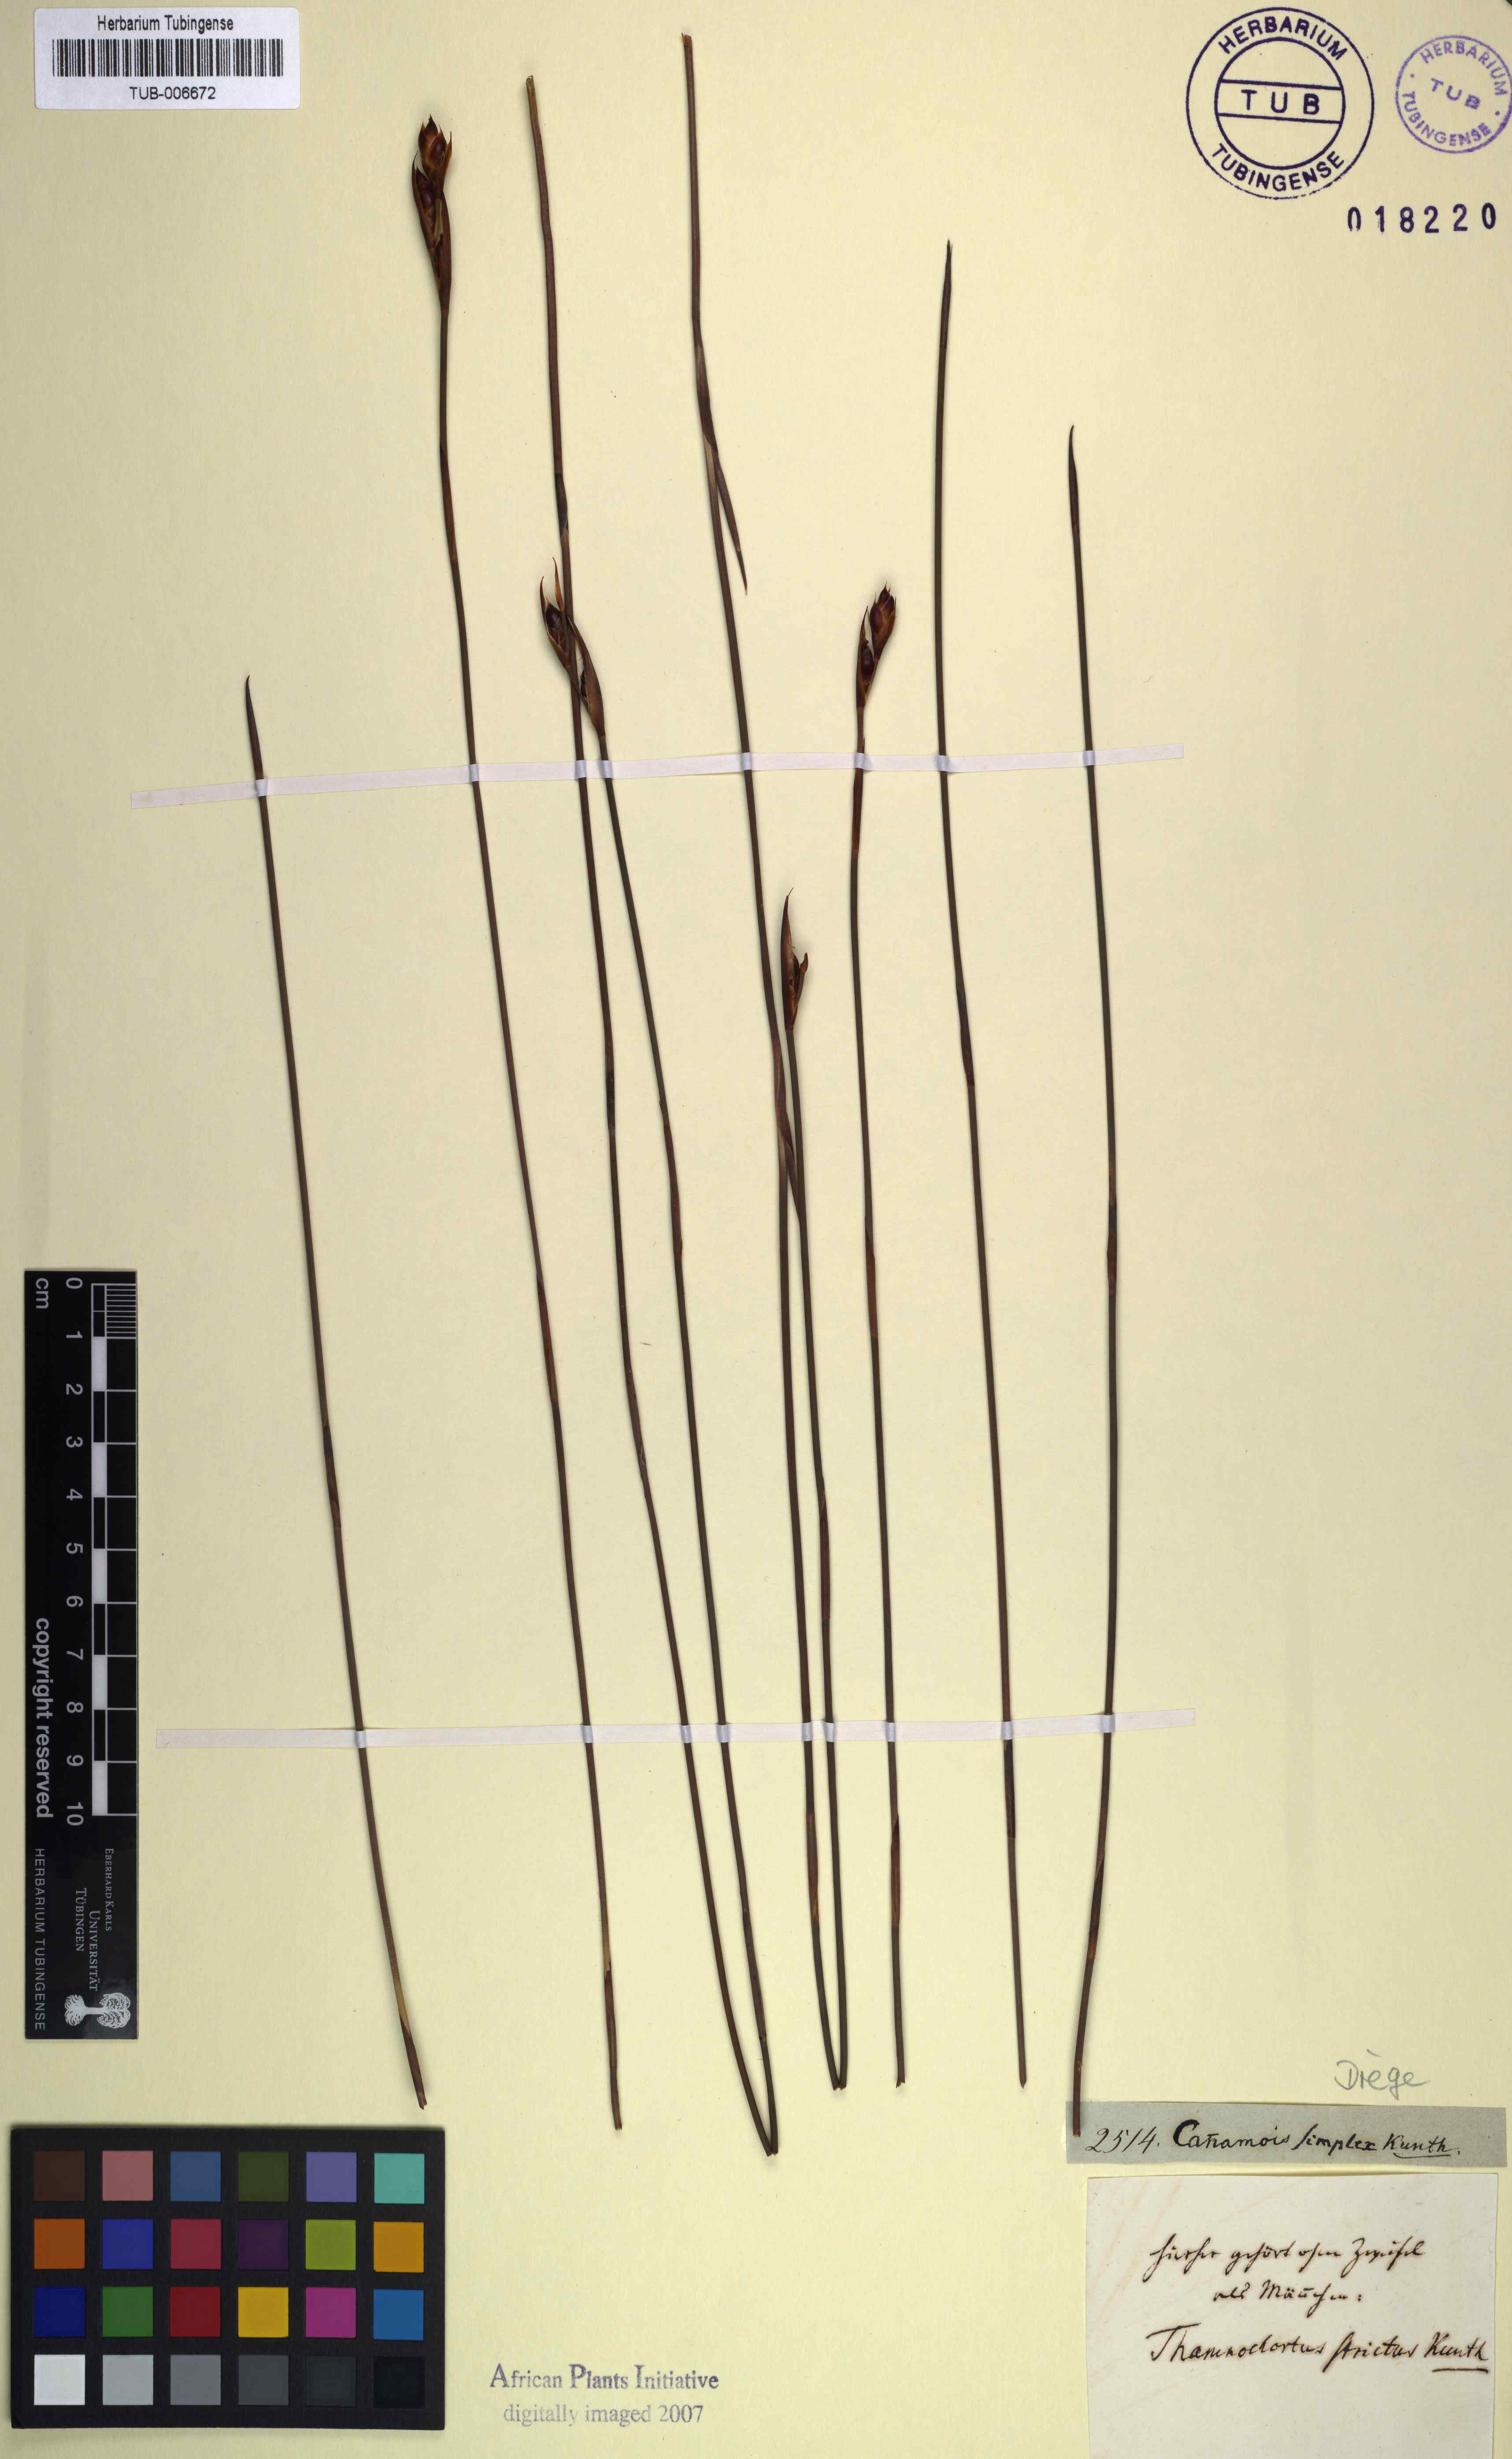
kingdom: Plantae
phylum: Tracheophyta
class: Liliopsida
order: Poales
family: Restionaceae
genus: Cannomois
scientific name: Cannomois parviflora
